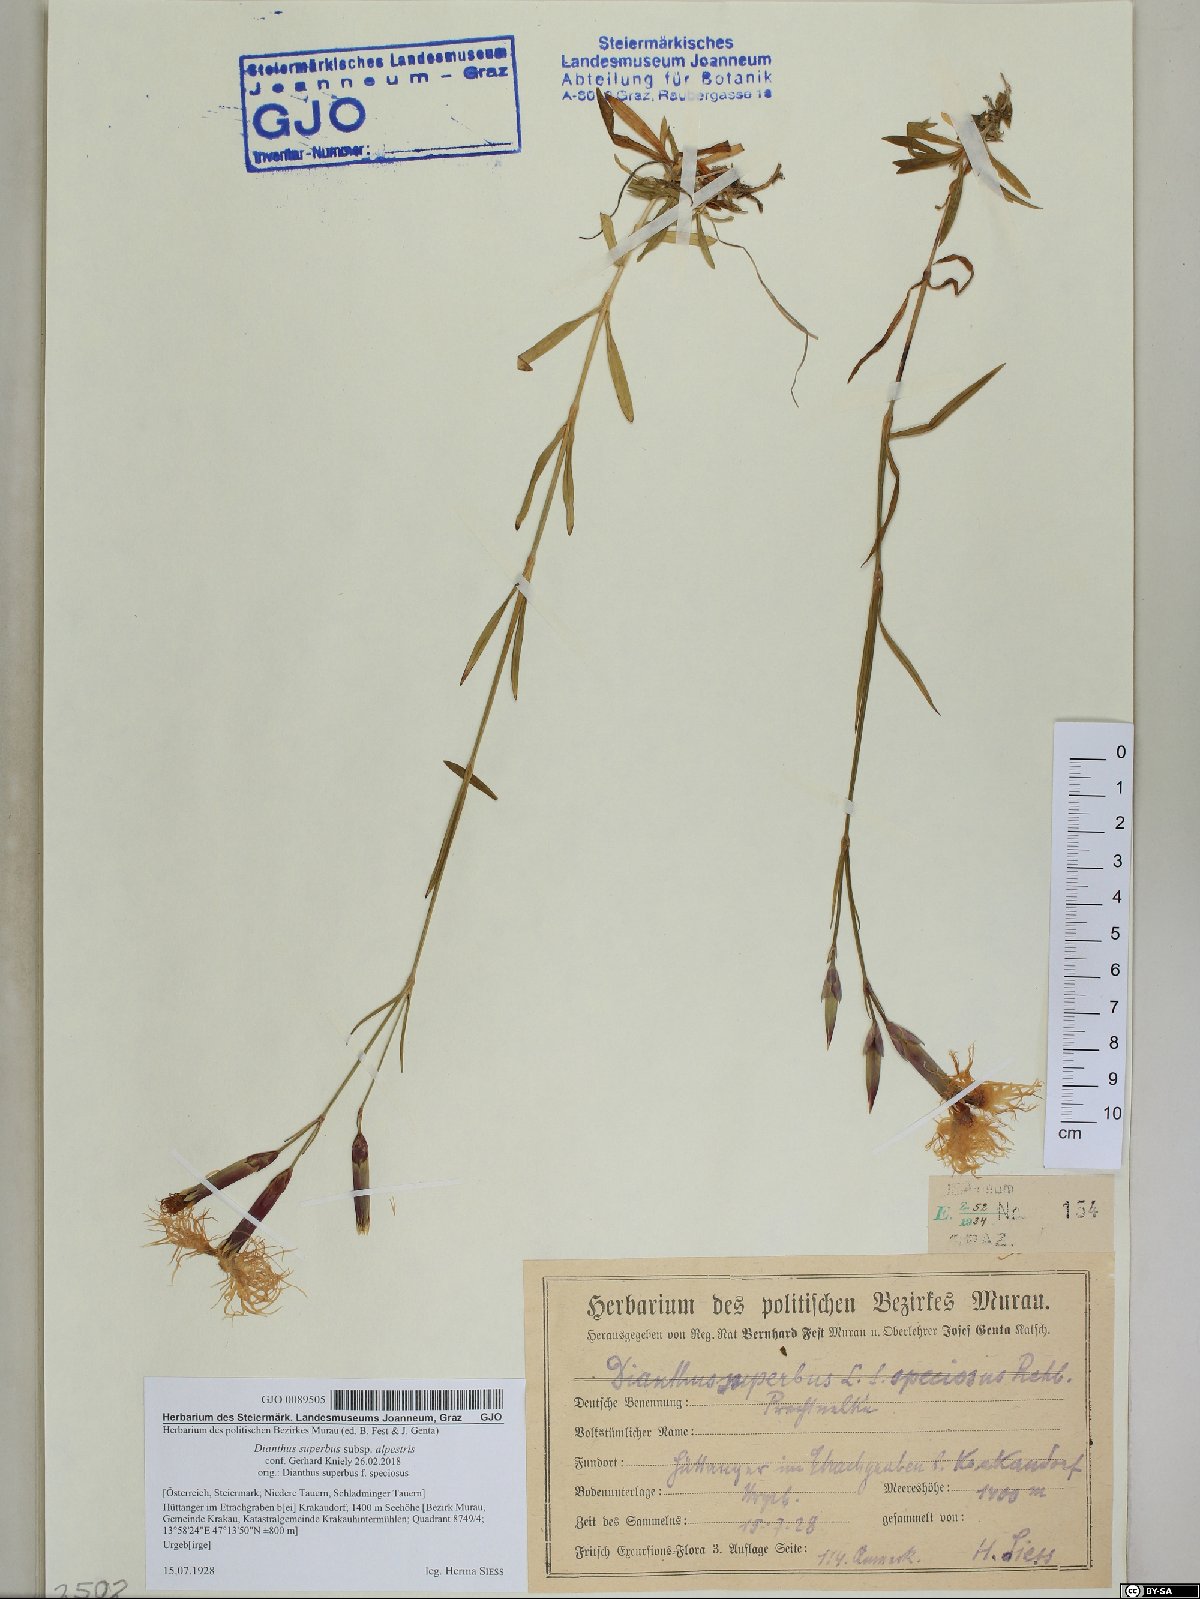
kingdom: Plantae
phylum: Tracheophyta
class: Magnoliopsida
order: Caryophyllales
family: Caryophyllaceae
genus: Dianthus
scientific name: Dianthus superbus
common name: Fringed pink
